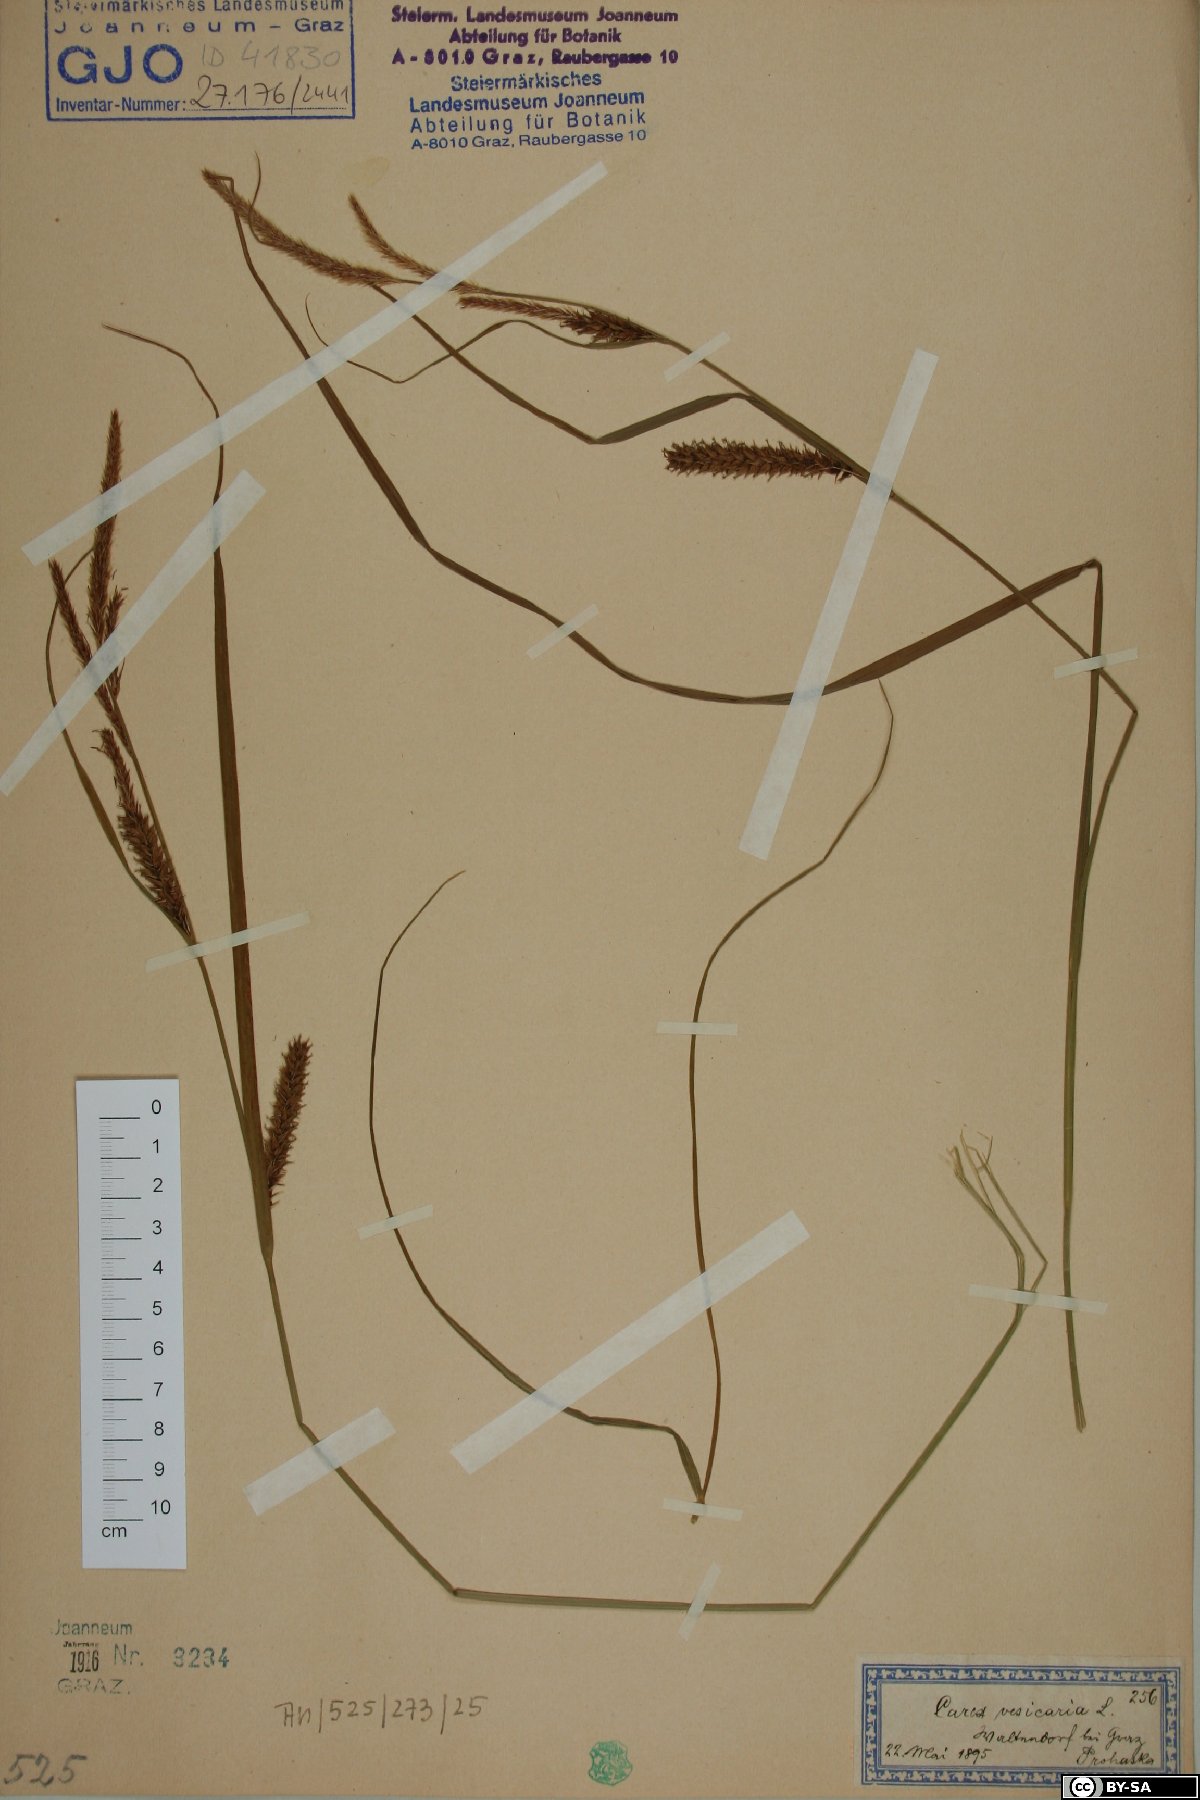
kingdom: Plantae
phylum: Tracheophyta
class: Liliopsida
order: Poales
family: Cyperaceae
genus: Carex
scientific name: Carex vesicaria
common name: Bladder-sedge
